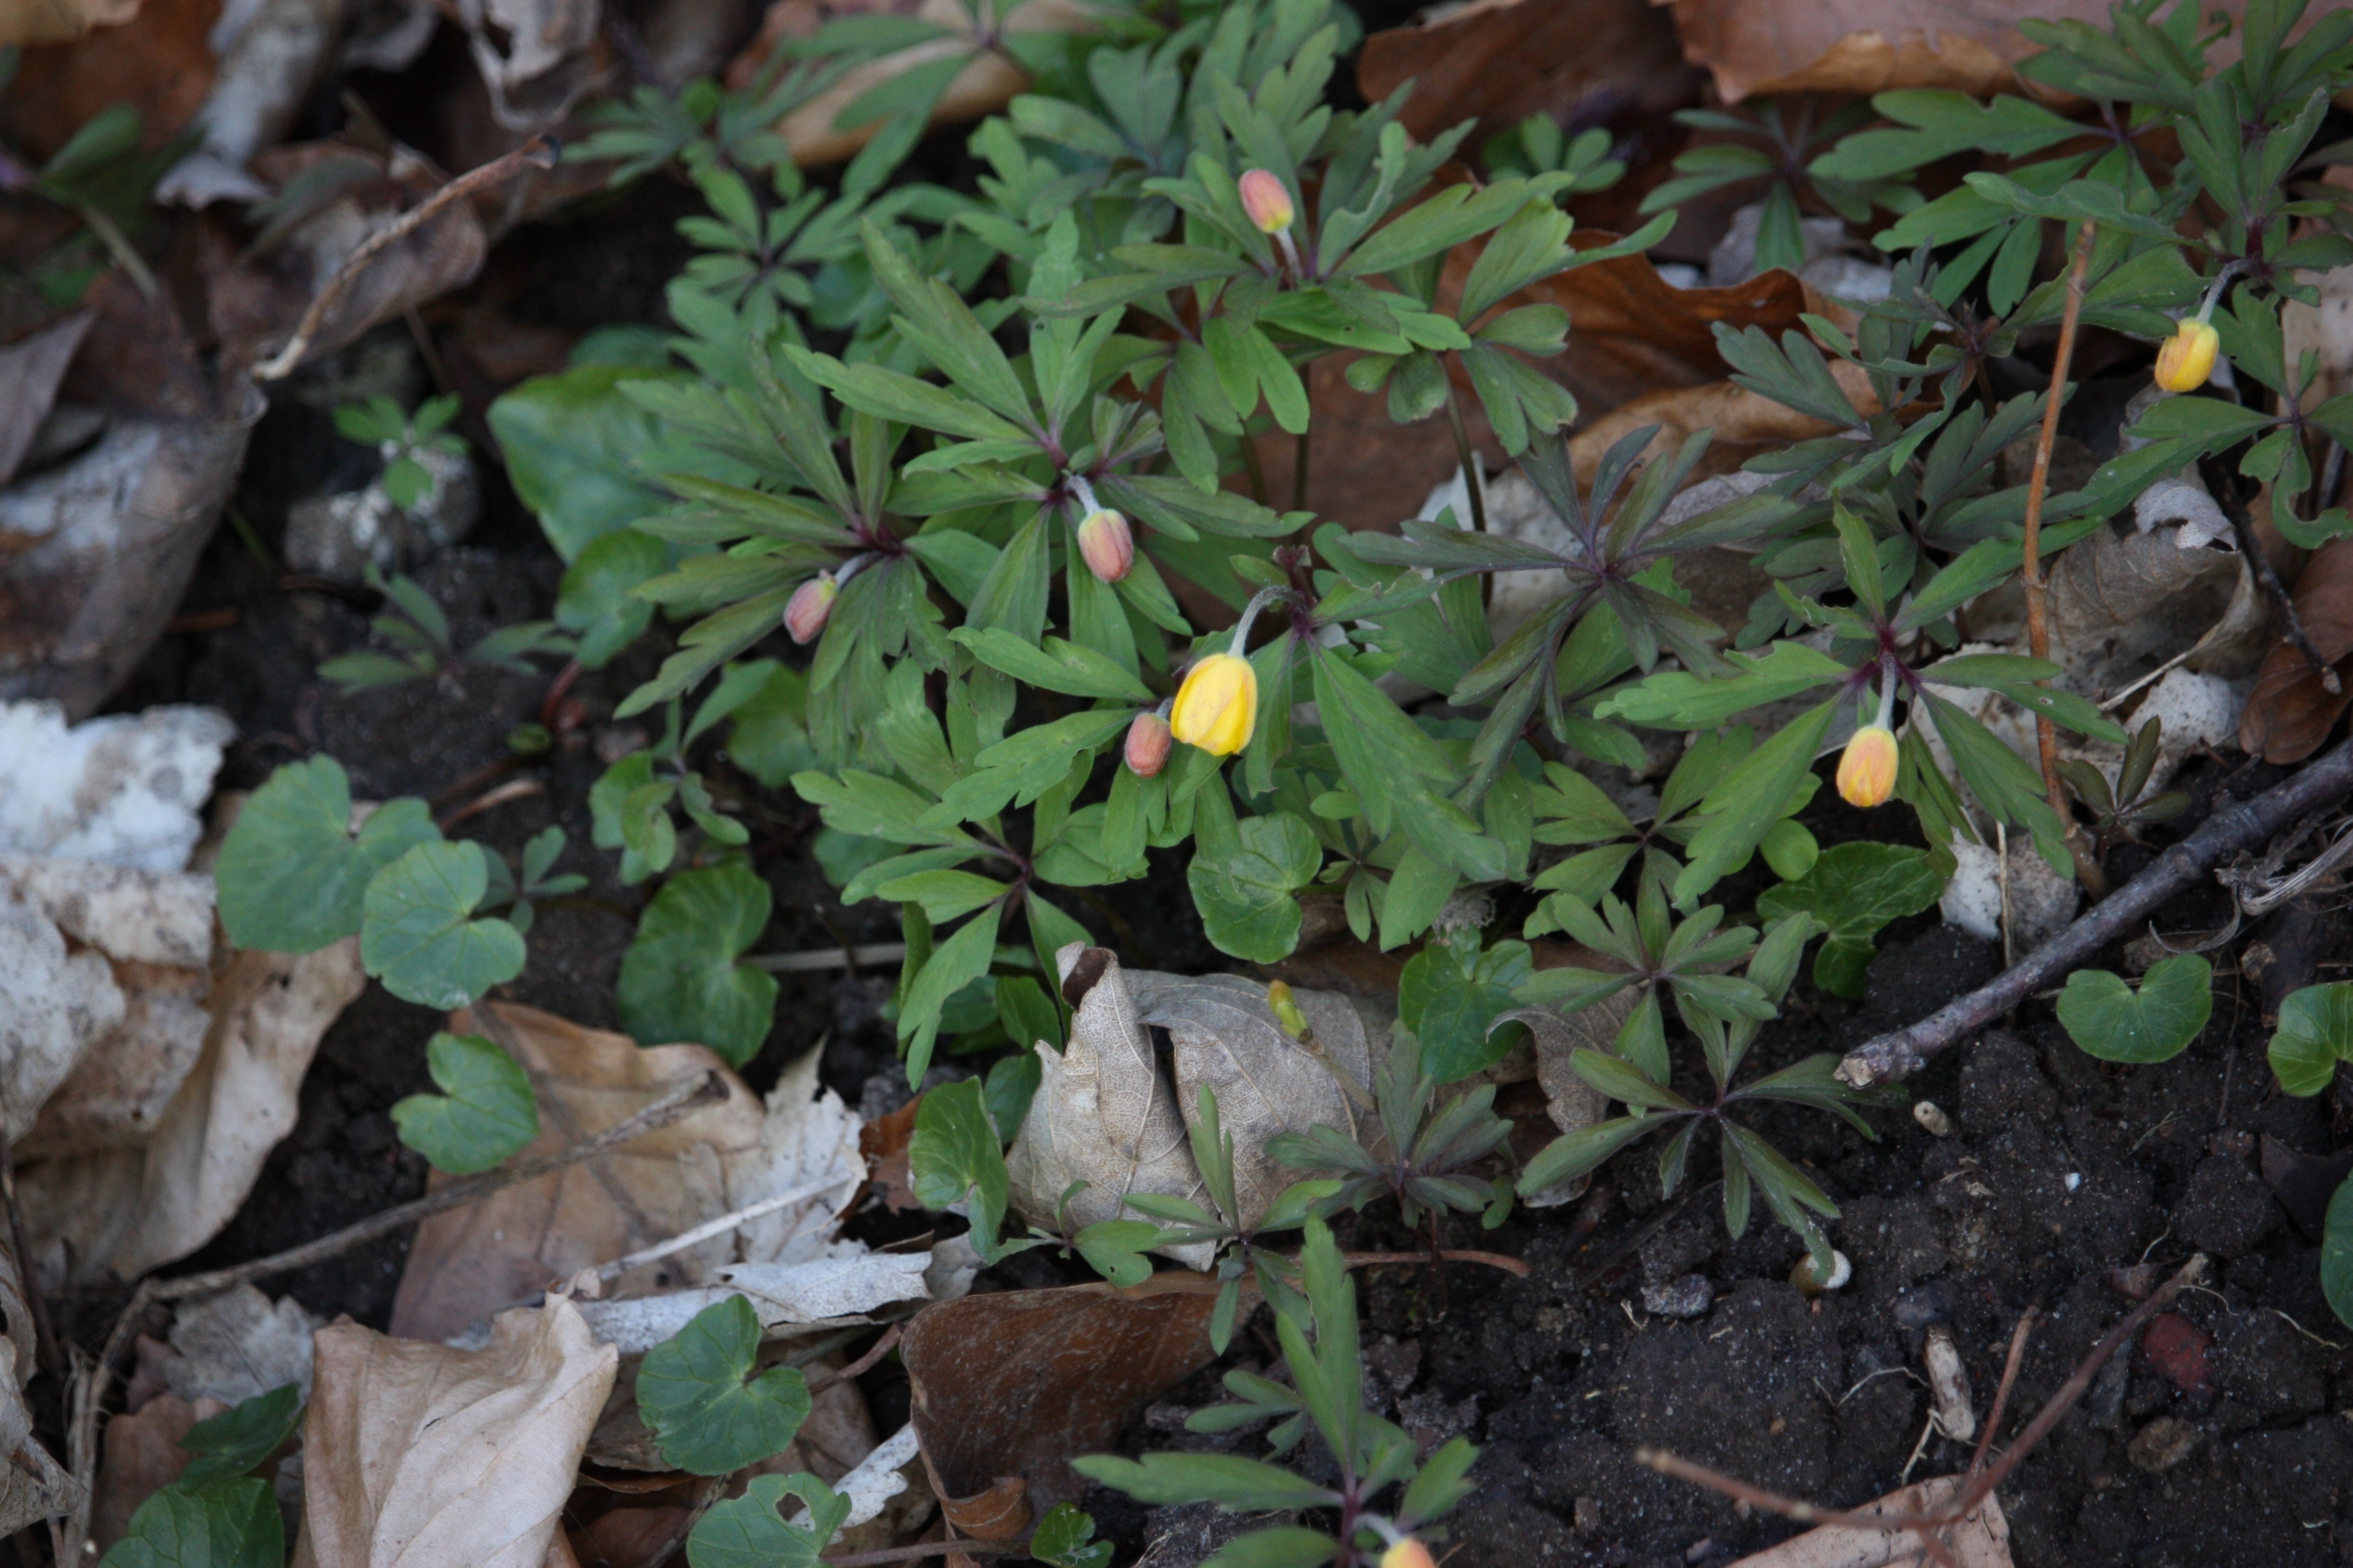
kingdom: Plantae
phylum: Tracheophyta
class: Magnoliopsida
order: Ranunculales
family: Ranunculaceae
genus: Anemone
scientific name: Anemone ranunculoides
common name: Gul anemone
